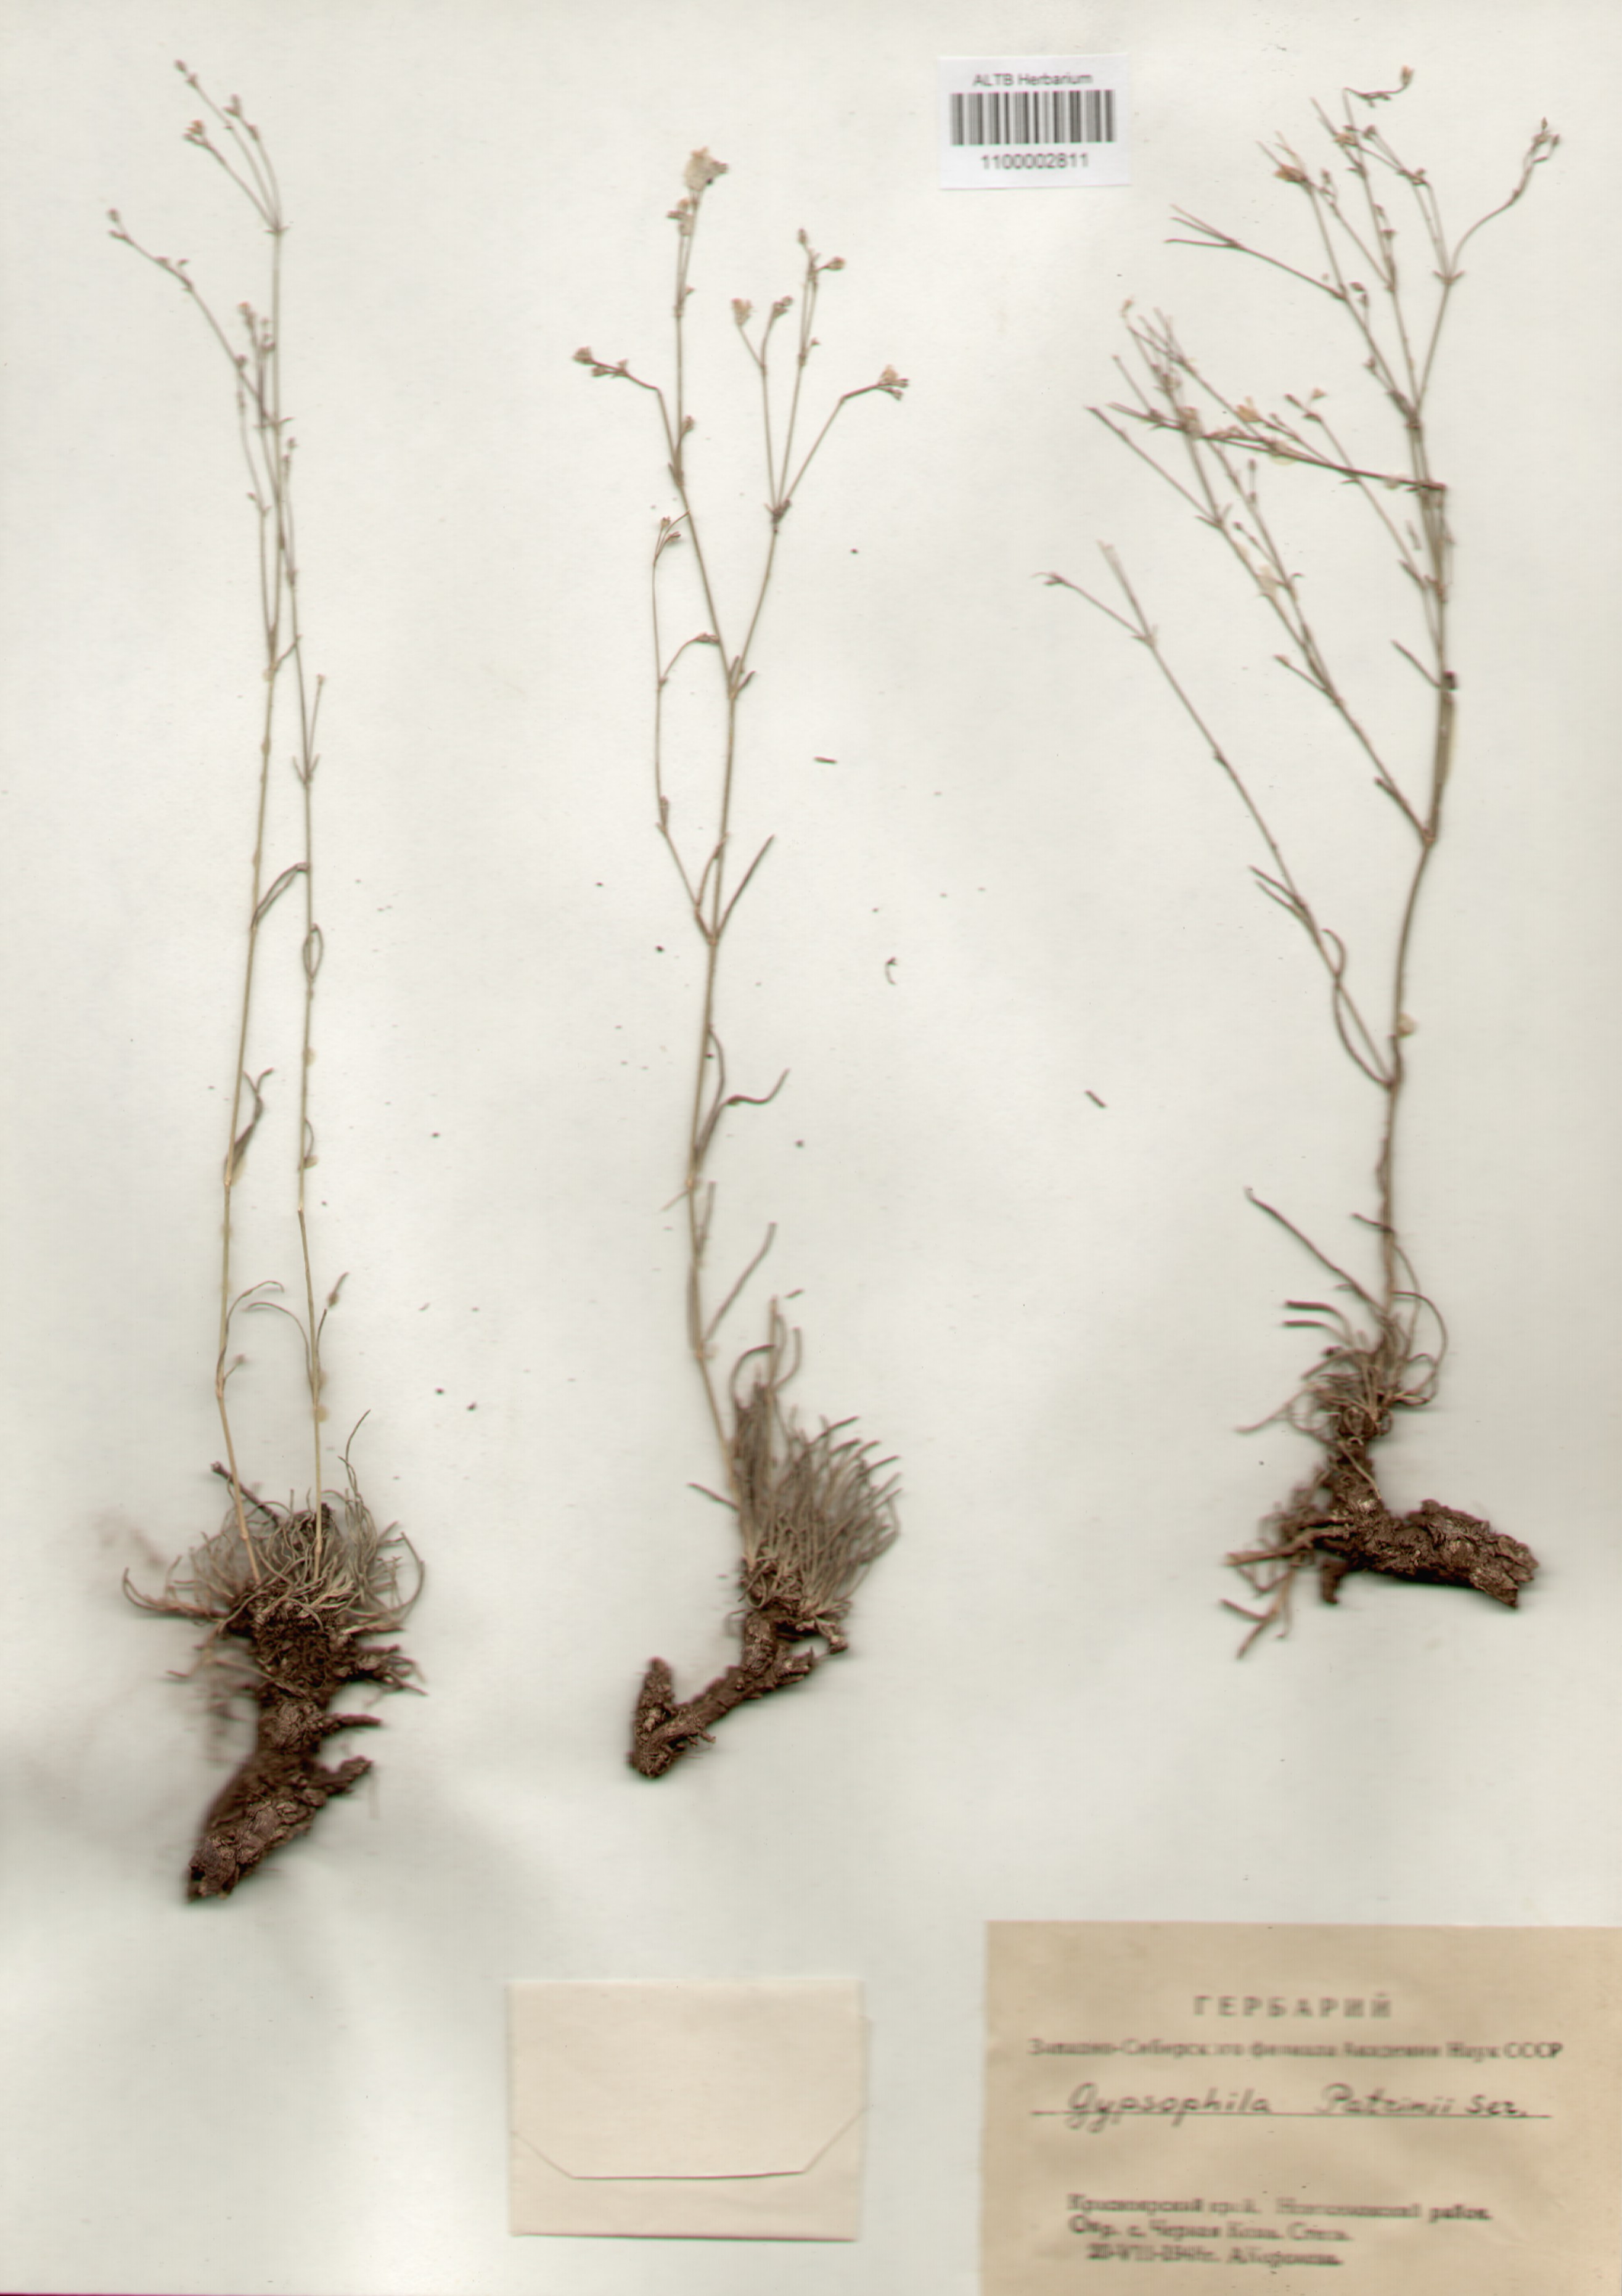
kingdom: Plantae
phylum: Tracheophyta
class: Magnoliopsida
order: Caryophyllales
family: Caryophyllaceae
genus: Gypsophila
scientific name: Gypsophila patrinii
